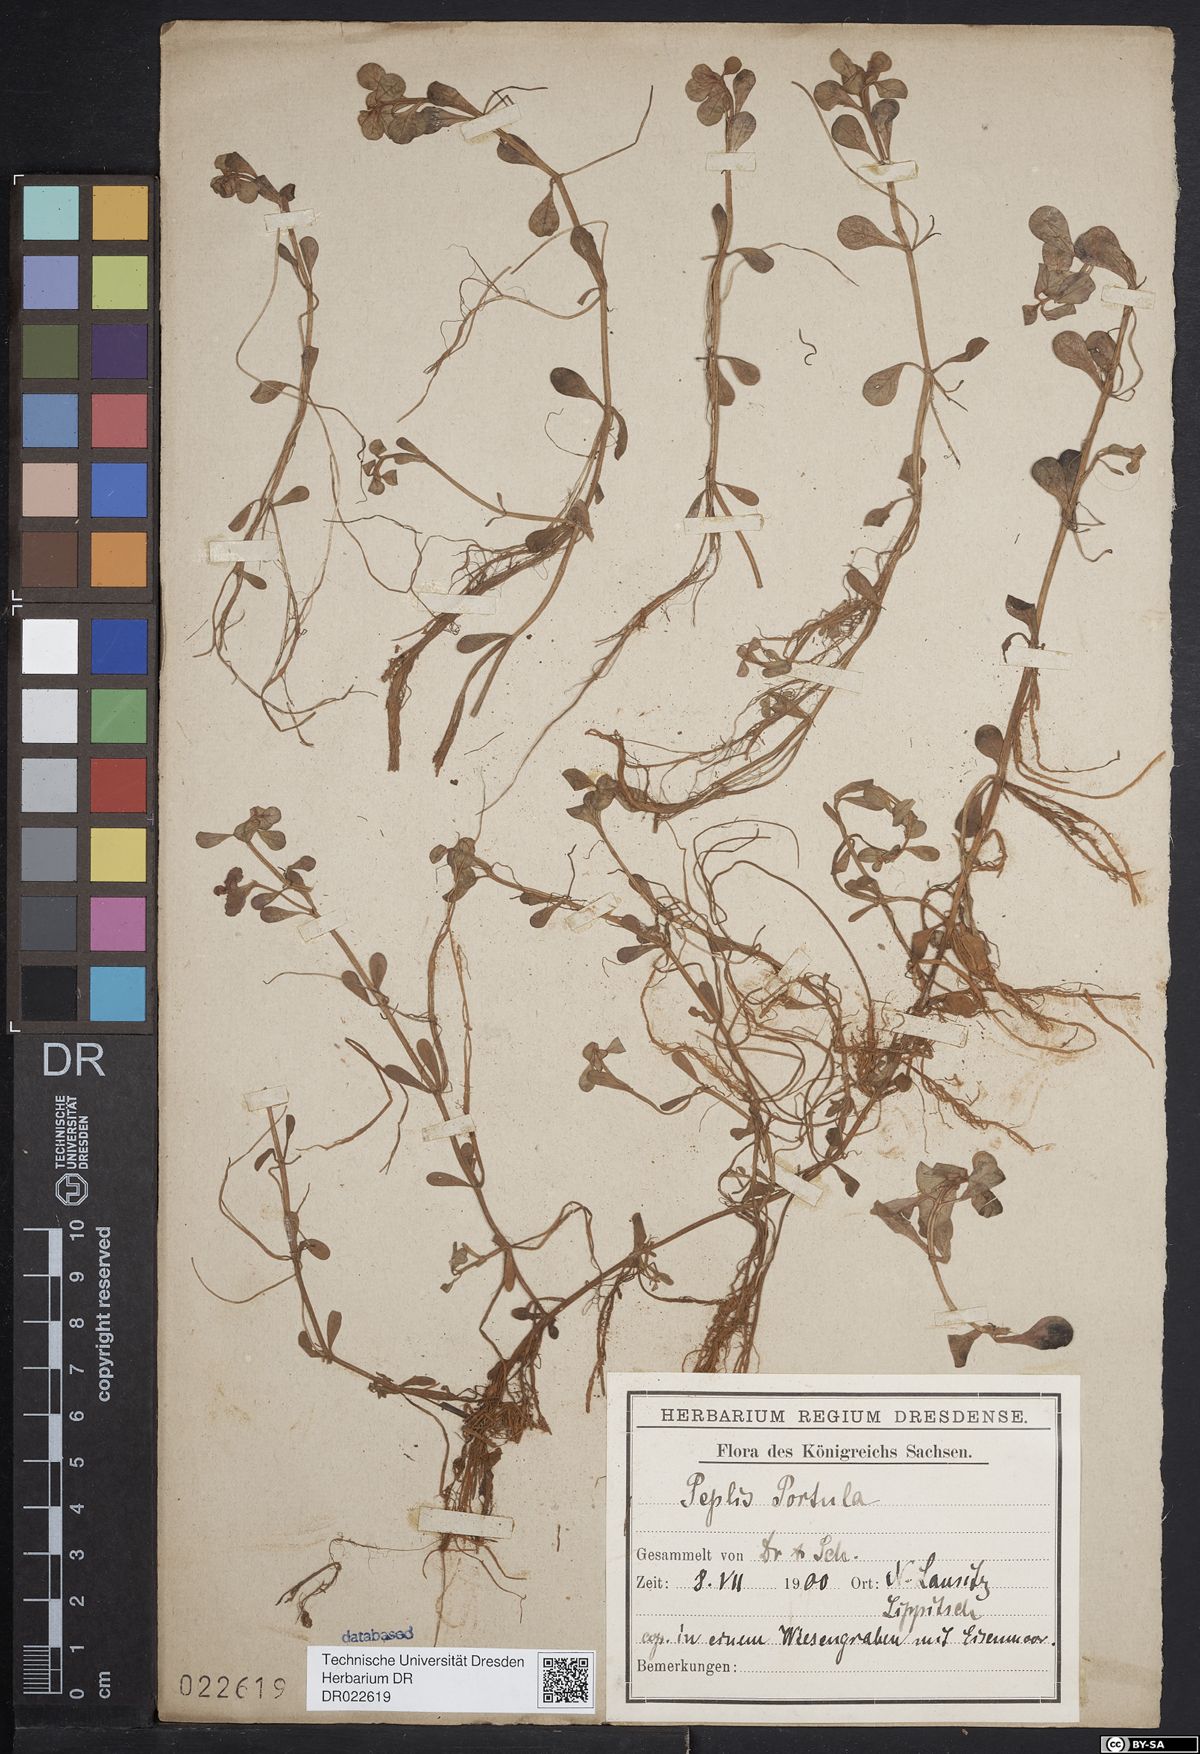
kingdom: Plantae
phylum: Tracheophyta
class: Magnoliopsida
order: Myrtales
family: Lythraceae
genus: Lythrum
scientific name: Lythrum portula
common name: Water purslane
